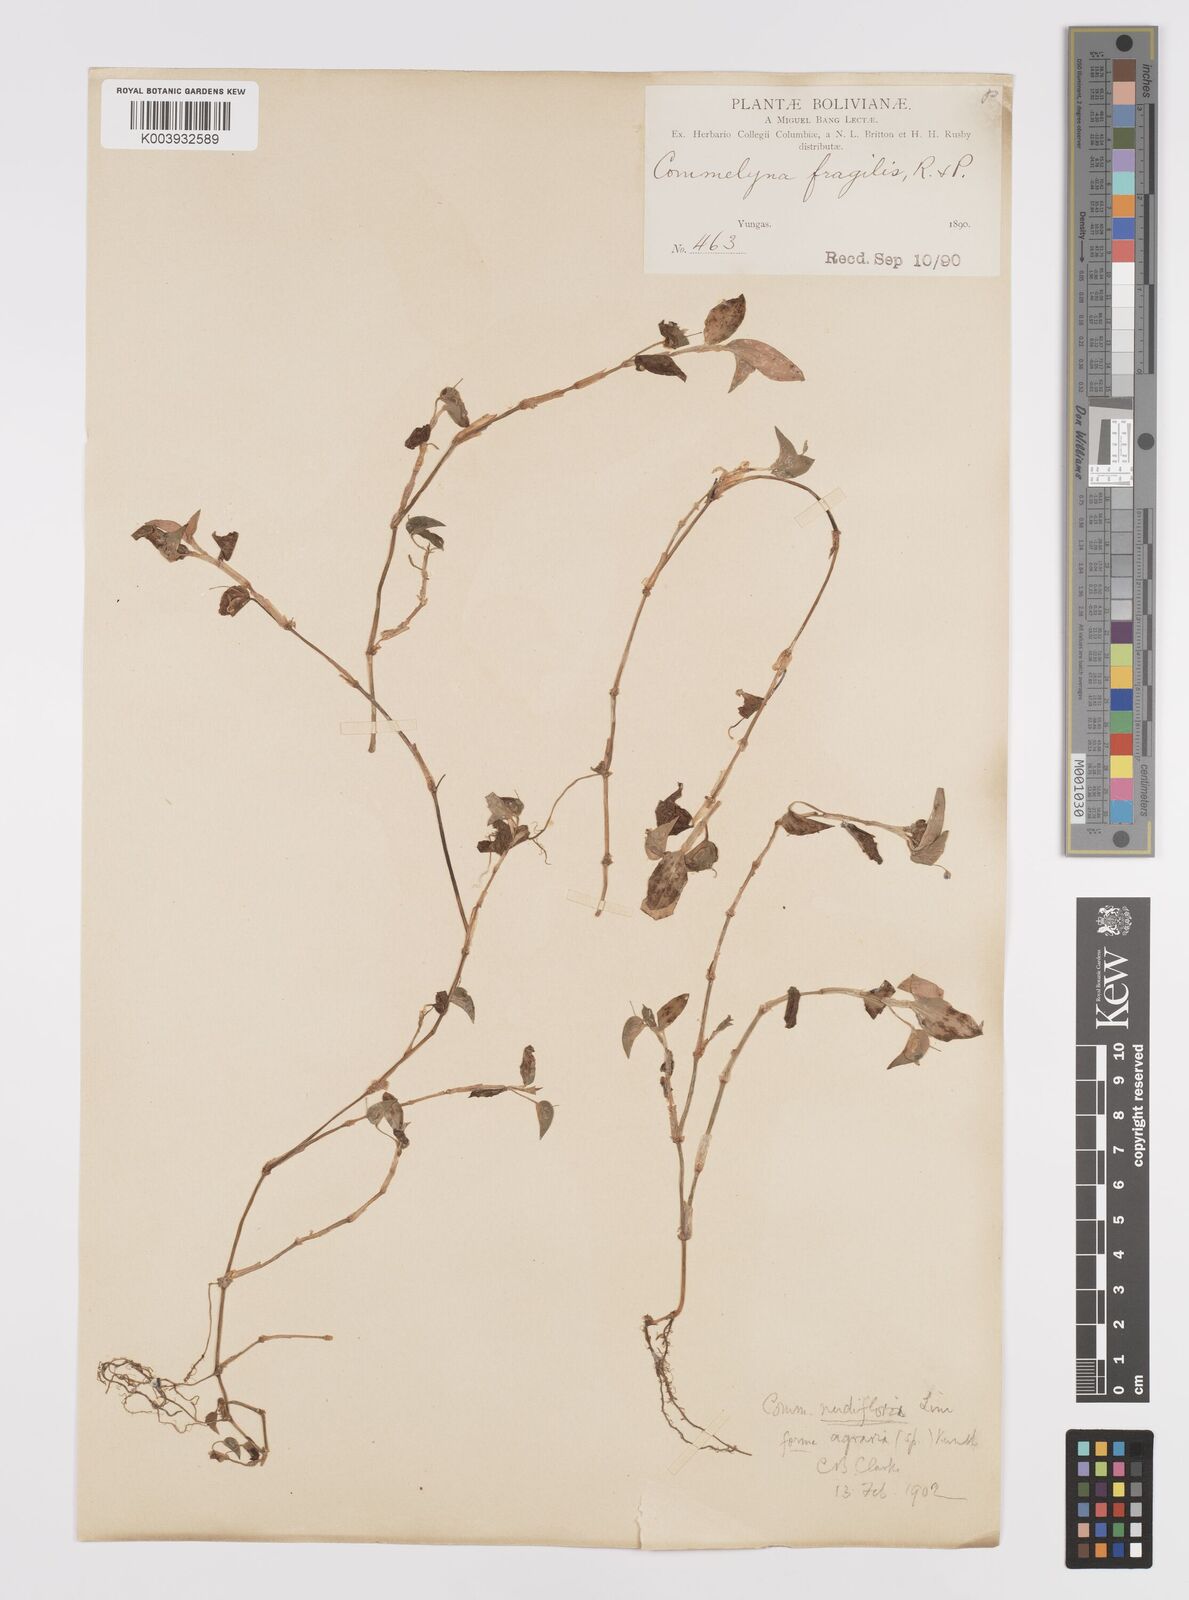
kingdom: Plantae
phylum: Tracheophyta
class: Liliopsida
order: Commelinales
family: Commelinaceae
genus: Commelina
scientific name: Commelina diffusa
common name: Climbing dayflower
